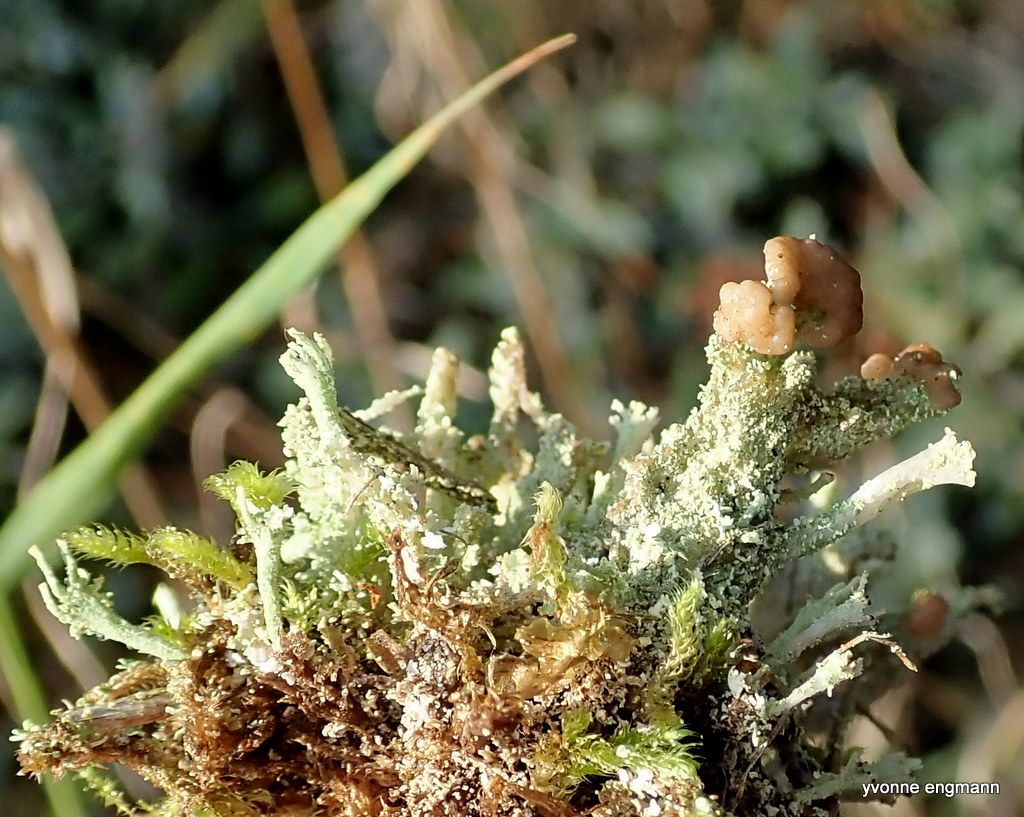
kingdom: Fungi
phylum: Ascomycota
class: Lecanoromycetes
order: Lecanorales
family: Cladoniaceae
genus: Cladonia
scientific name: Cladonia ramulosa
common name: kliddet bægerlav
